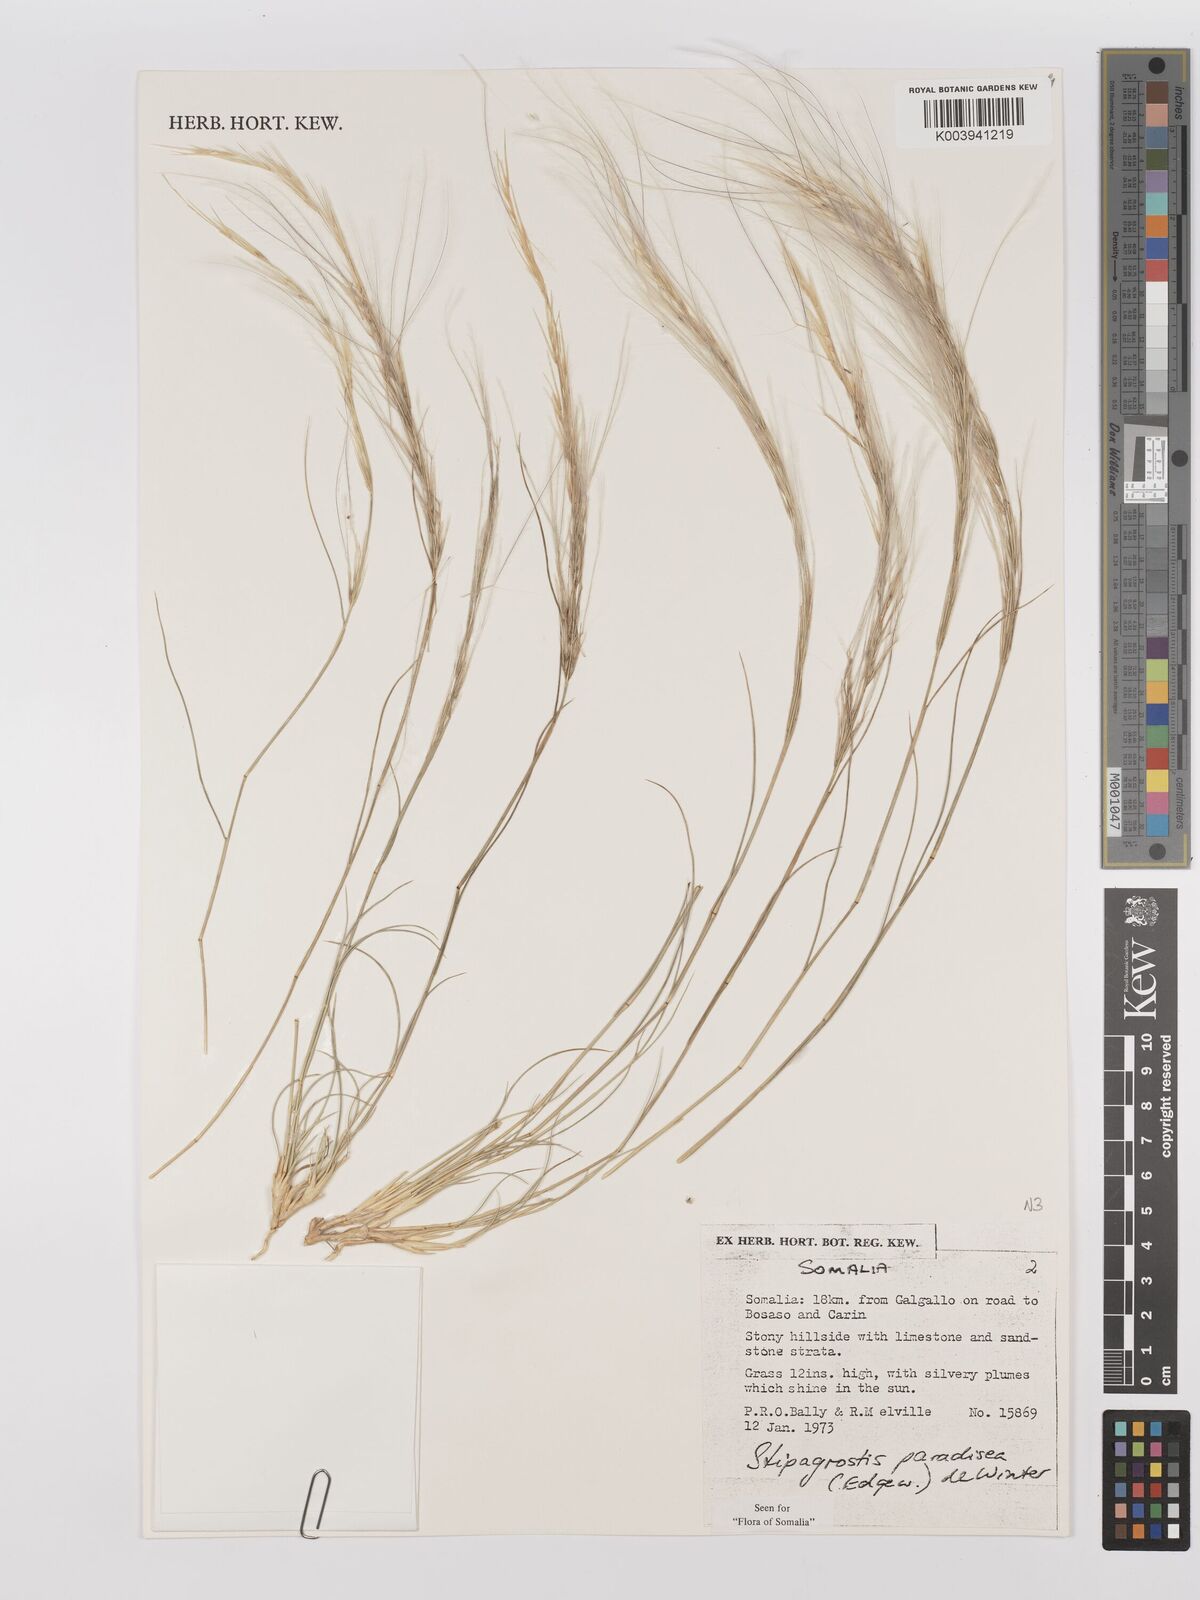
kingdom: Plantae
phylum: Tracheophyta
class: Liliopsida
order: Poales
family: Poaceae
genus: Stipagrostis
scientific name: Stipagrostis paradisea
